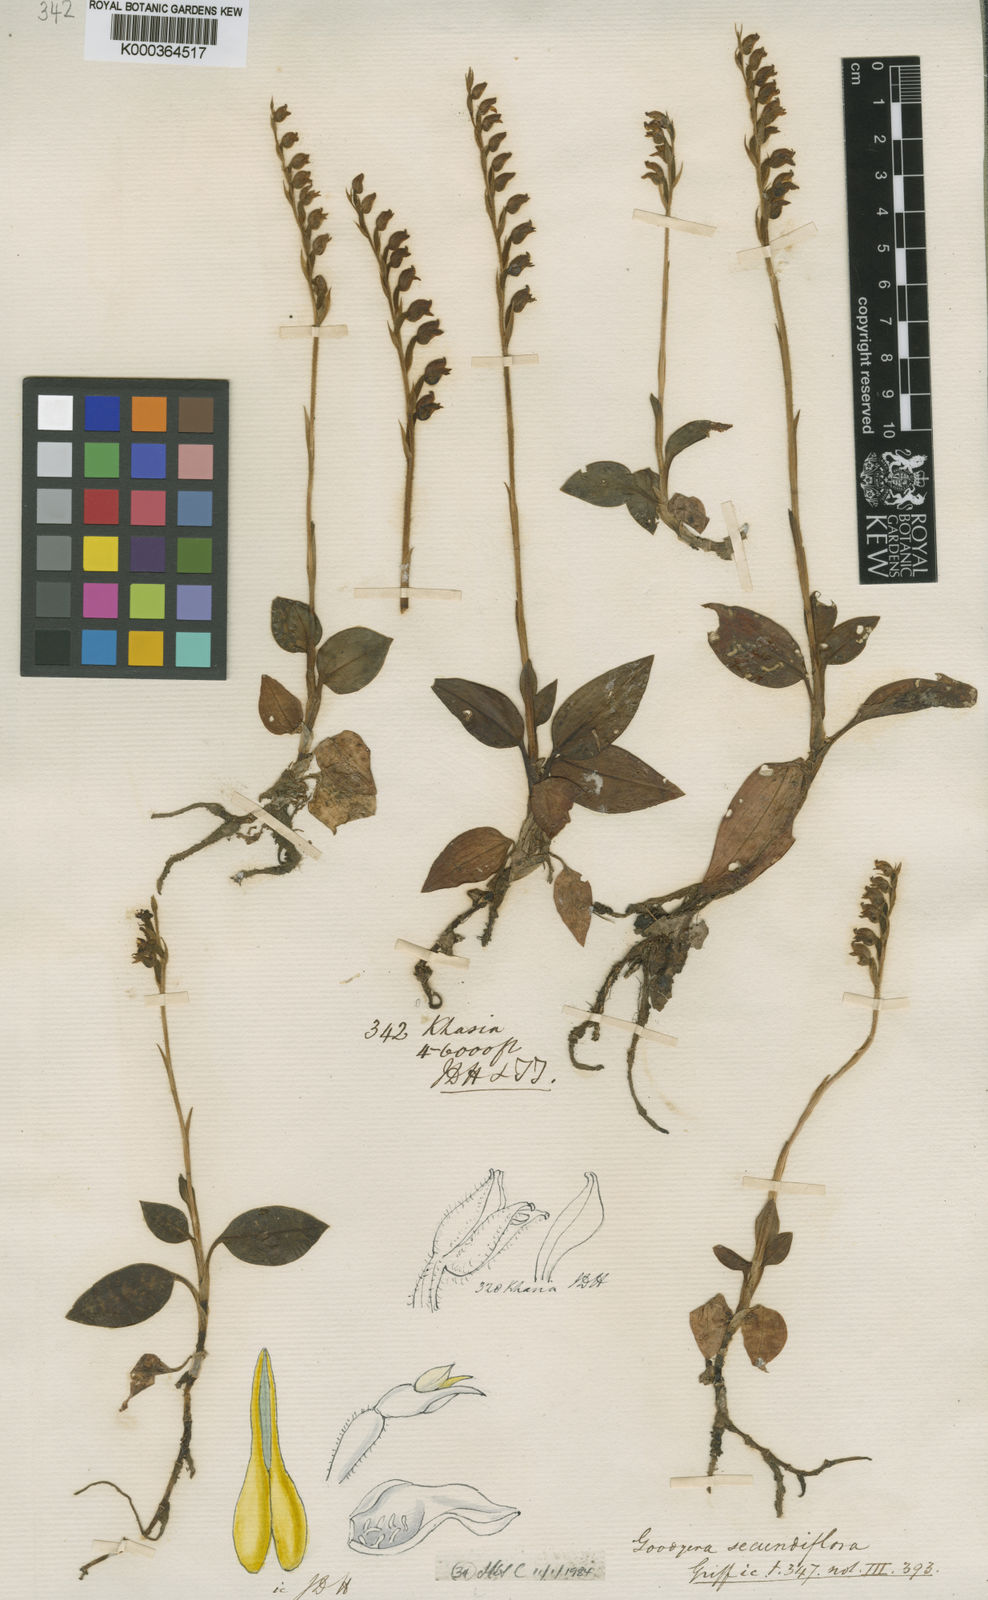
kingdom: Plantae
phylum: Tracheophyta
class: Liliopsida
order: Asparagales
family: Orchidaceae
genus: Goodyera
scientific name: Goodyera foliosa
